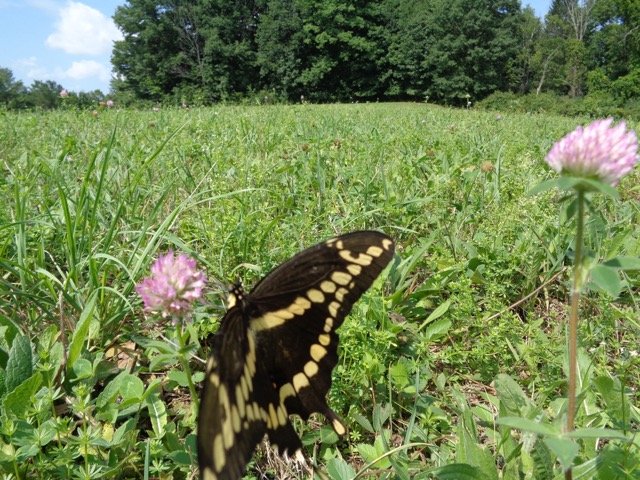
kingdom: Animalia
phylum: Arthropoda
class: Insecta
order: Lepidoptera
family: Papilionidae
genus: Papilio
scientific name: Papilio cresphontes
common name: Eastern Giant Swallowtail
